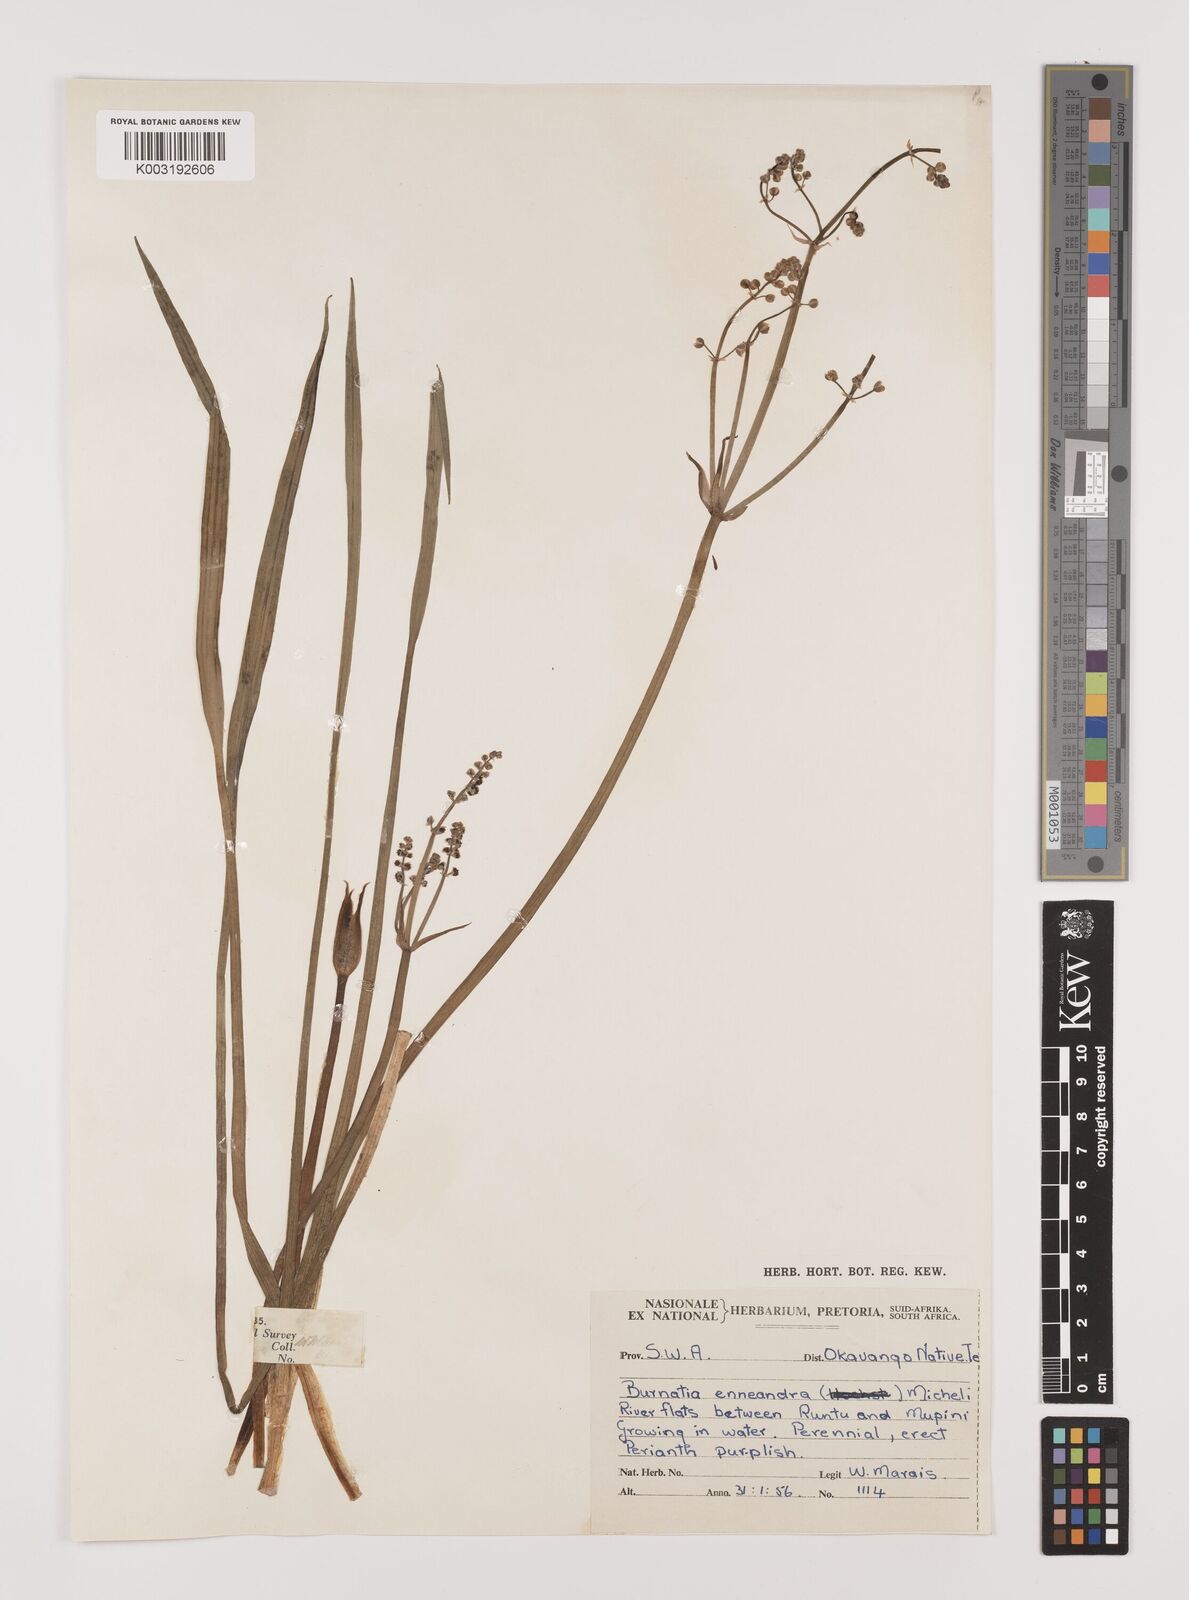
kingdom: Plantae
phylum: Tracheophyta
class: Liliopsida
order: Alismatales
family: Alismataceae
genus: Burnatia
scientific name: Burnatia enneandra
